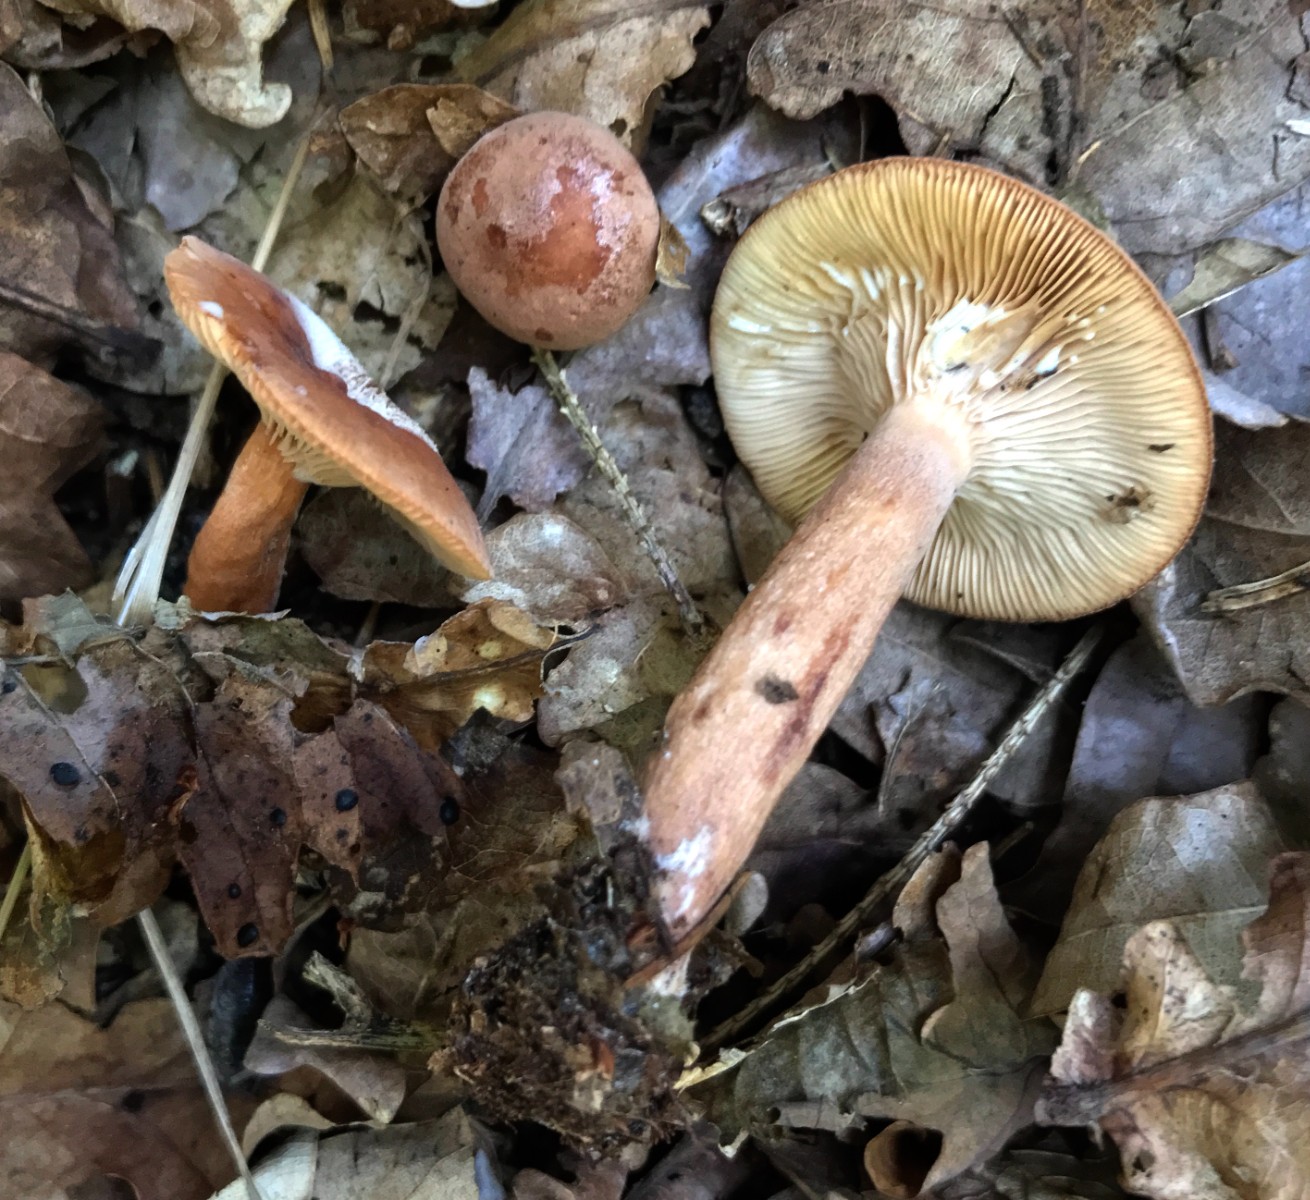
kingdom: Fungi
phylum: Basidiomycota
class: Agaricomycetes
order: Russulales
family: Russulaceae
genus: Lactarius
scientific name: Lactarius quietus
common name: ege-mælkehat
